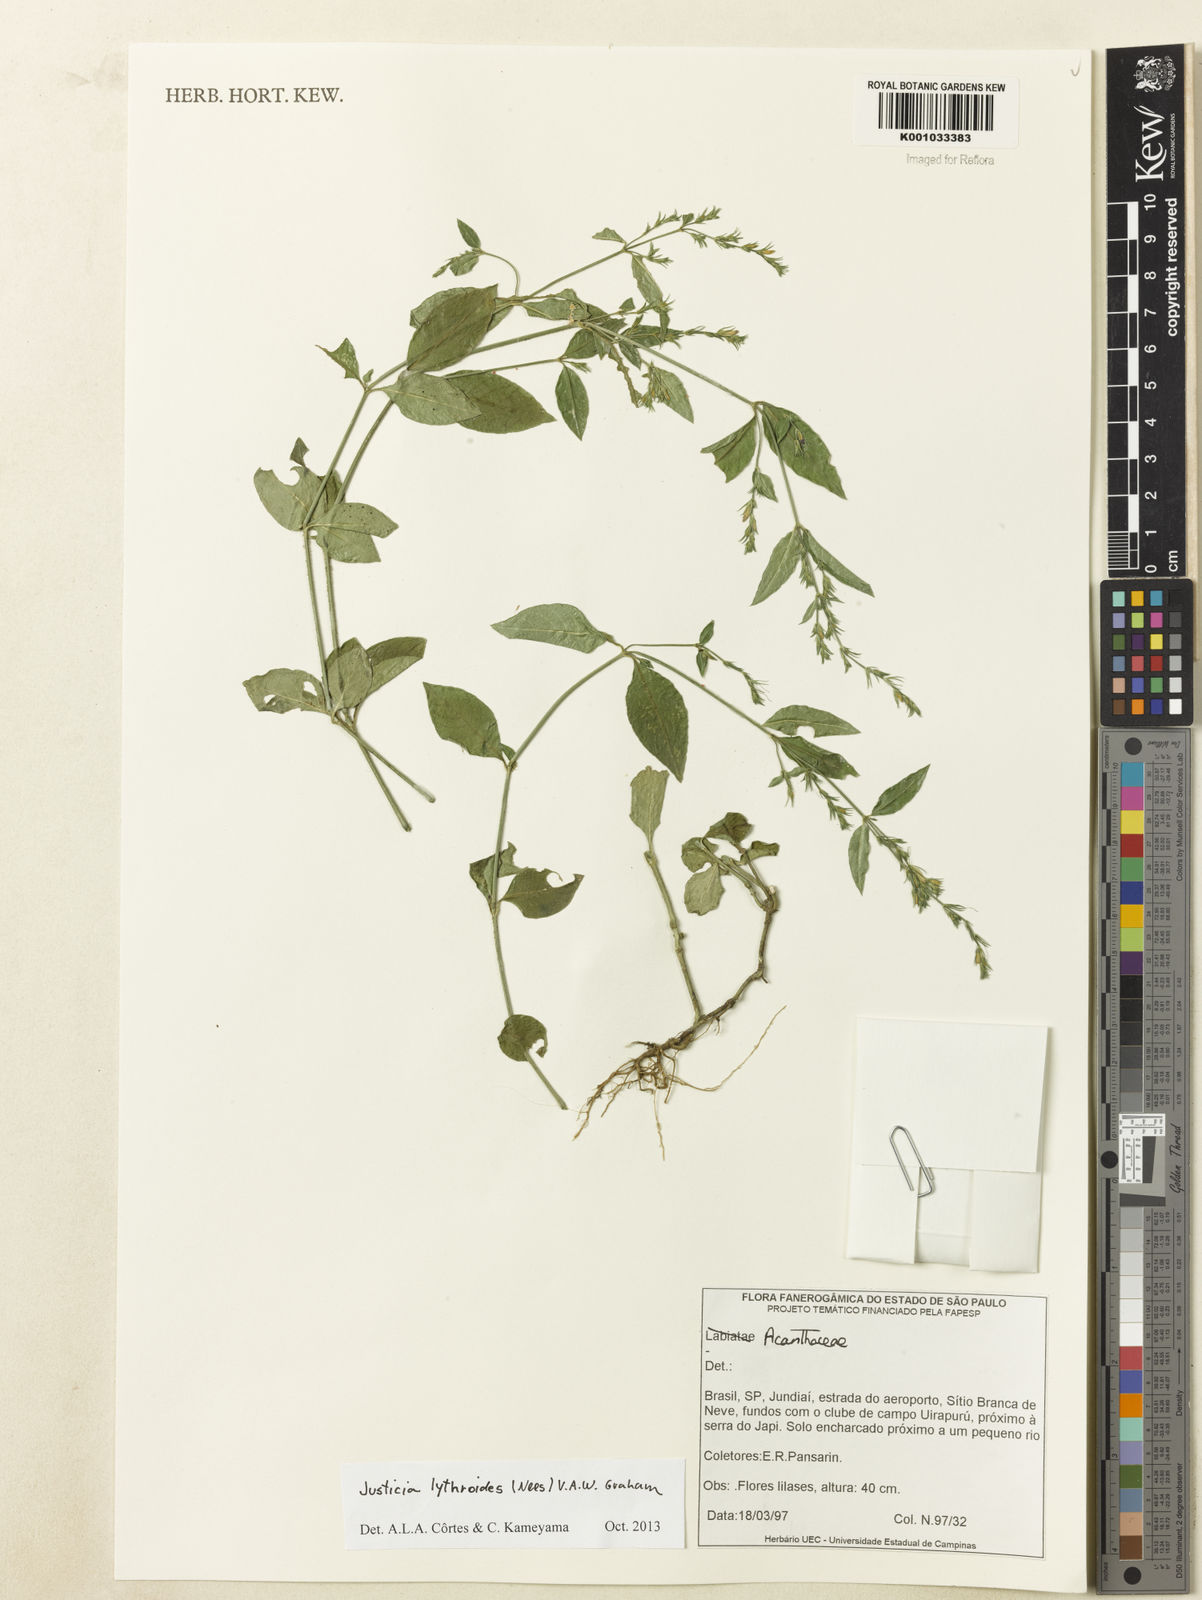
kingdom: Plantae
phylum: Tracheophyta
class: Magnoliopsida
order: Lamiales
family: Acanthaceae
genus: Justicia
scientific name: Justicia lythroides
